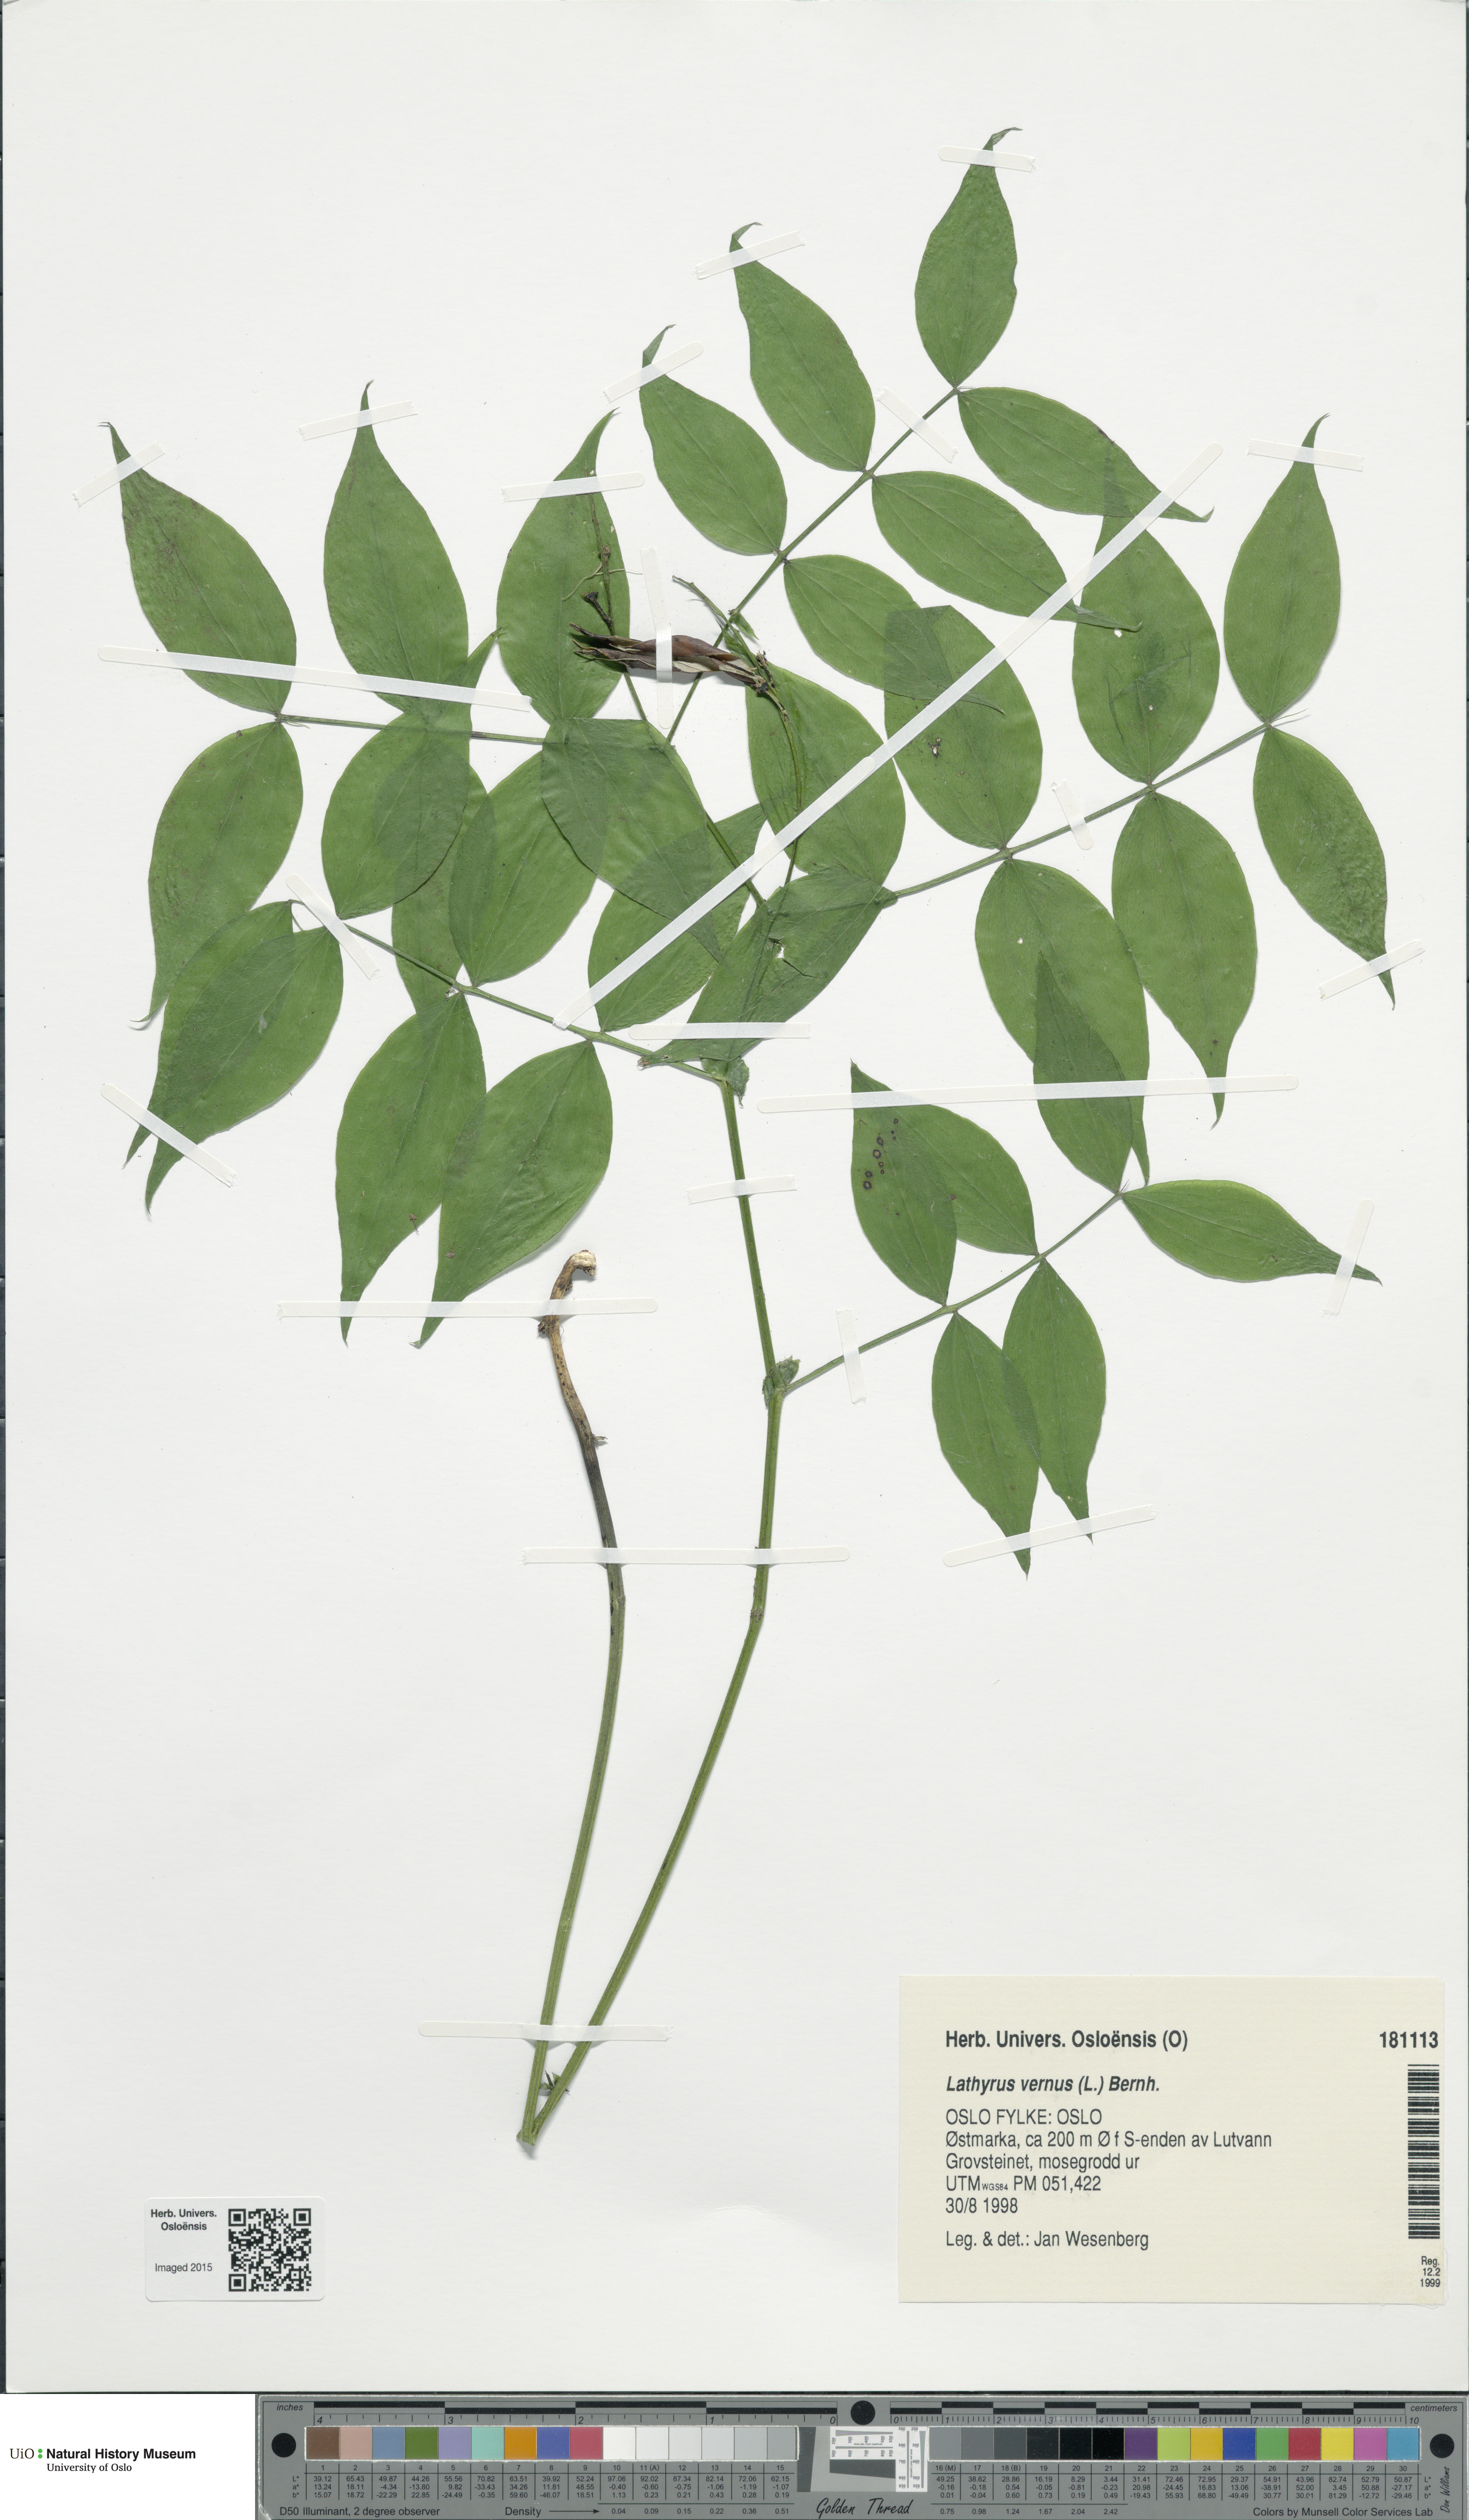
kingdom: Plantae
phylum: Tracheophyta
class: Magnoliopsida
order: Fabales
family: Fabaceae
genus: Lathyrus
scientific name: Lathyrus vernus
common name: Spring pea
